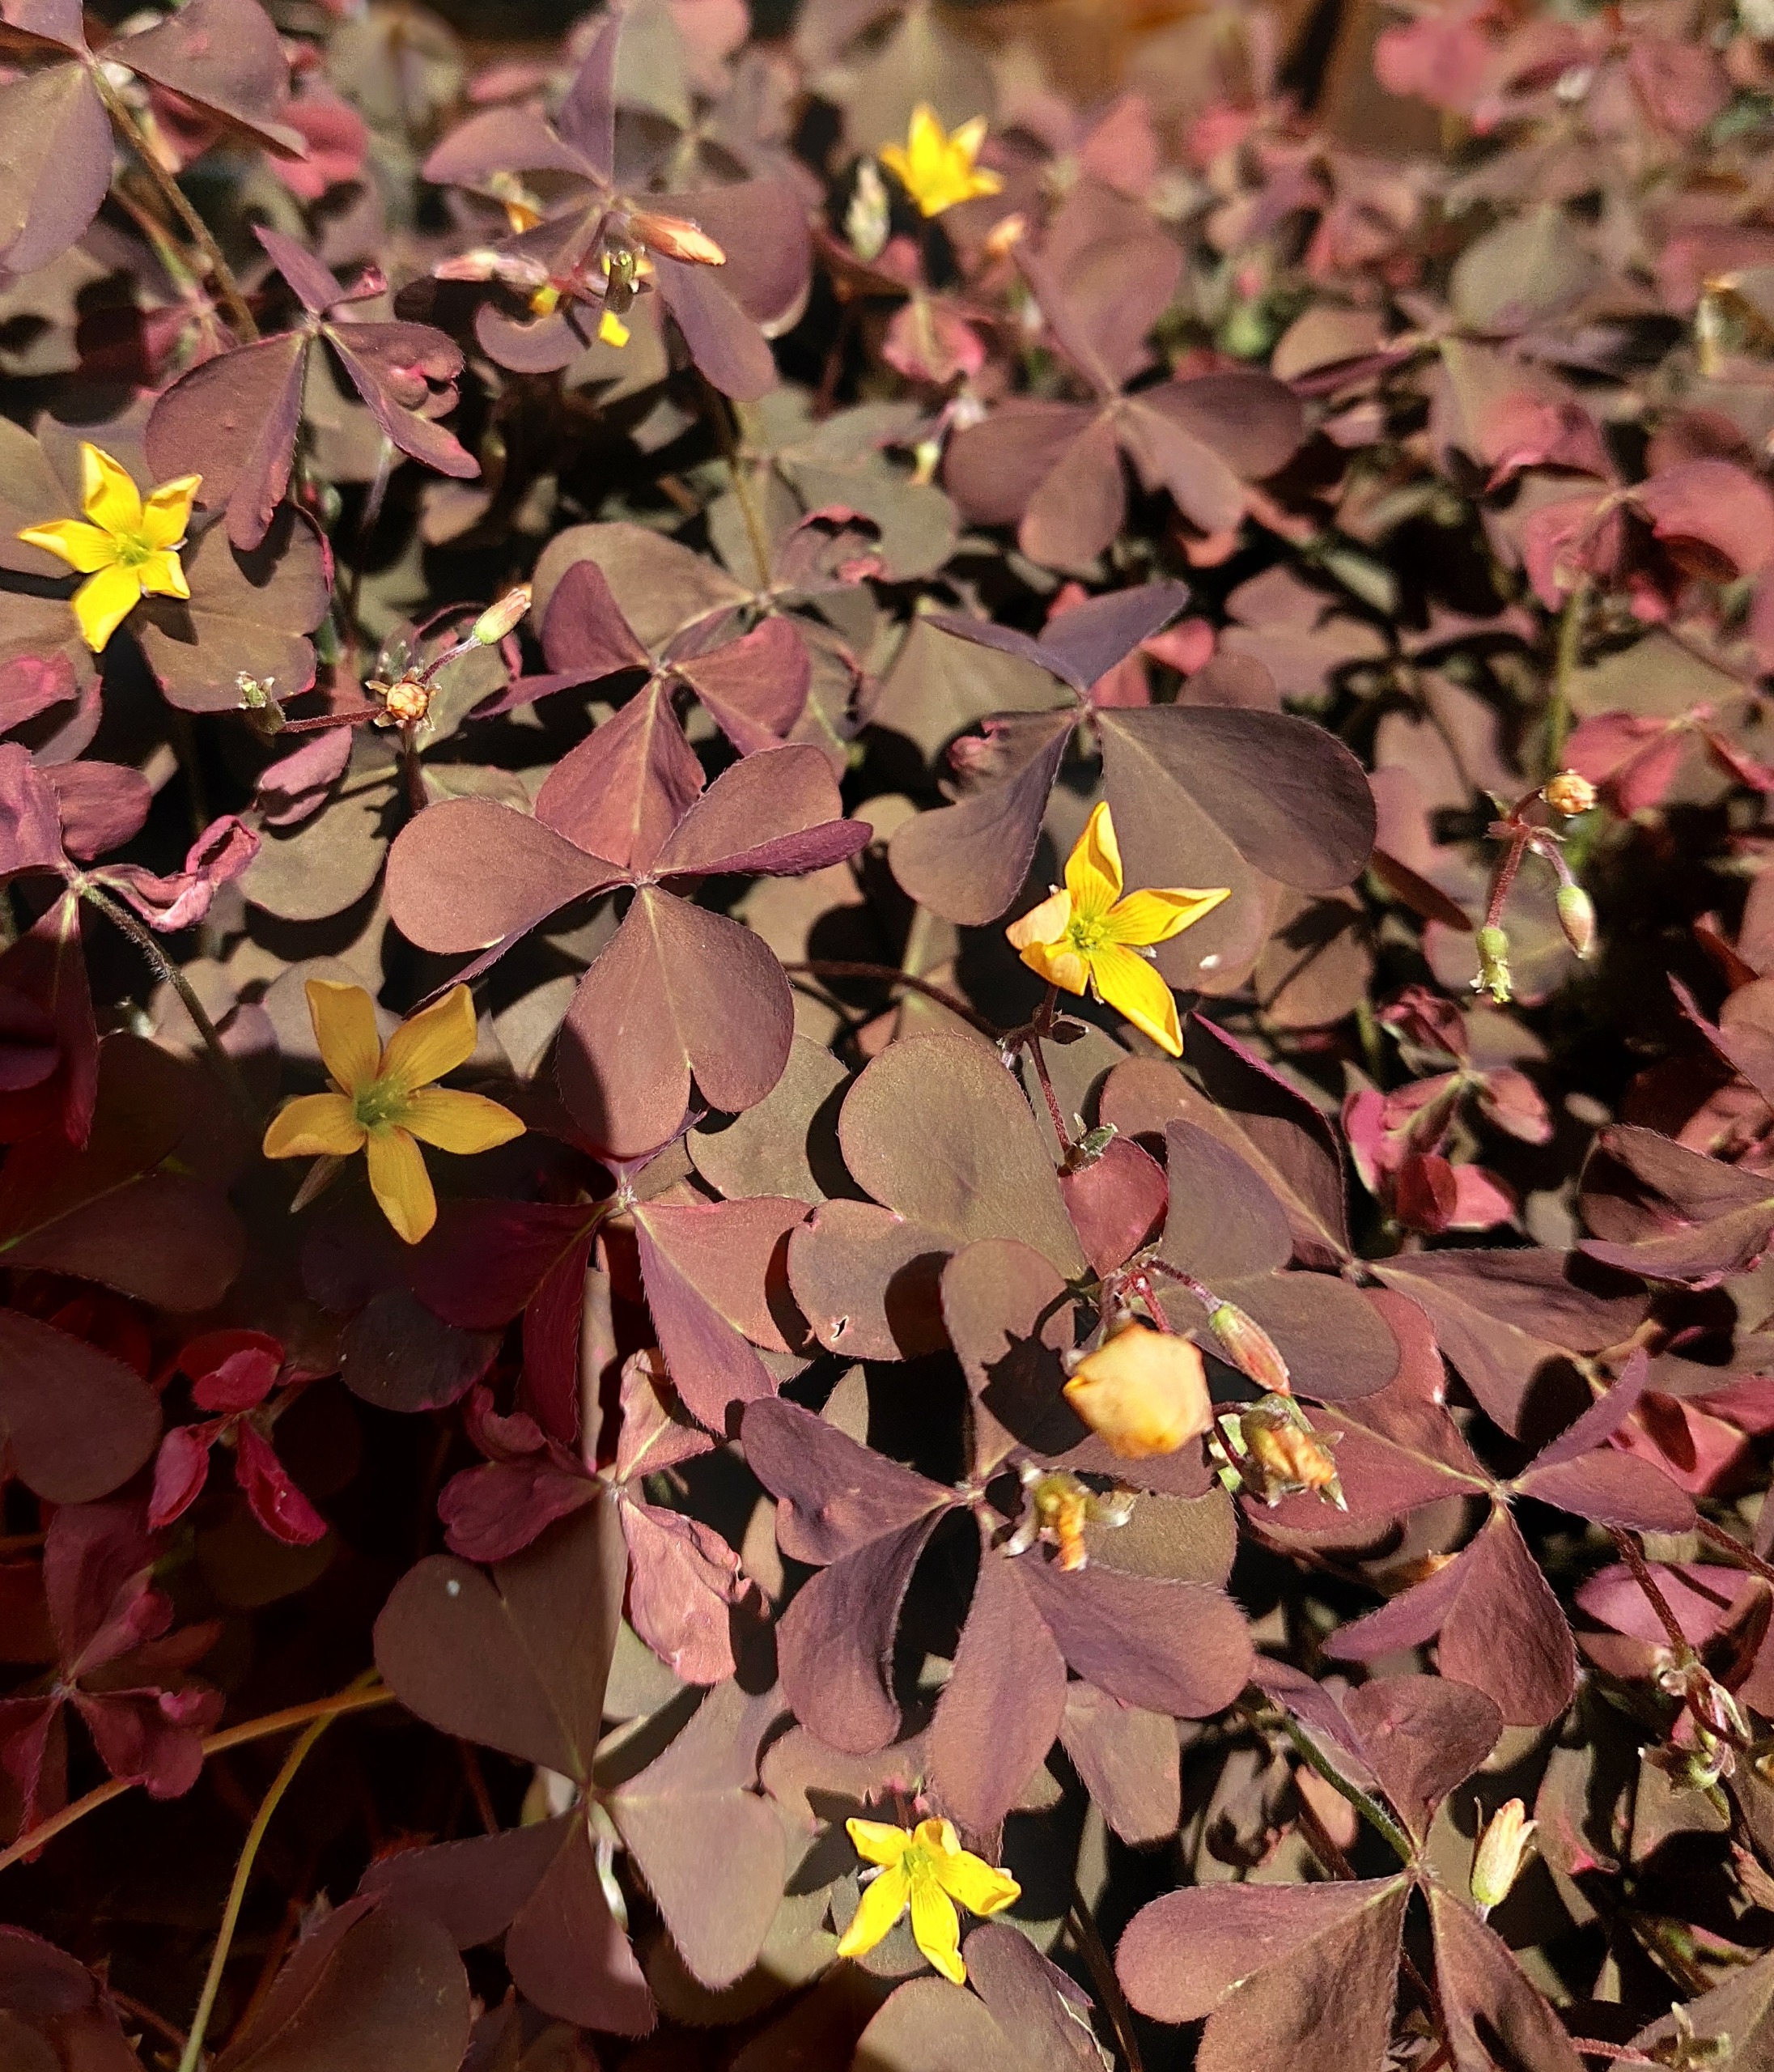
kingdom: Plantae
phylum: Tracheophyta
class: Magnoliopsida
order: Oxalidales
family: Oxalidaceae
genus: Oxalis
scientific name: Oxalis corniculata
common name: Nedliggende surkløver
